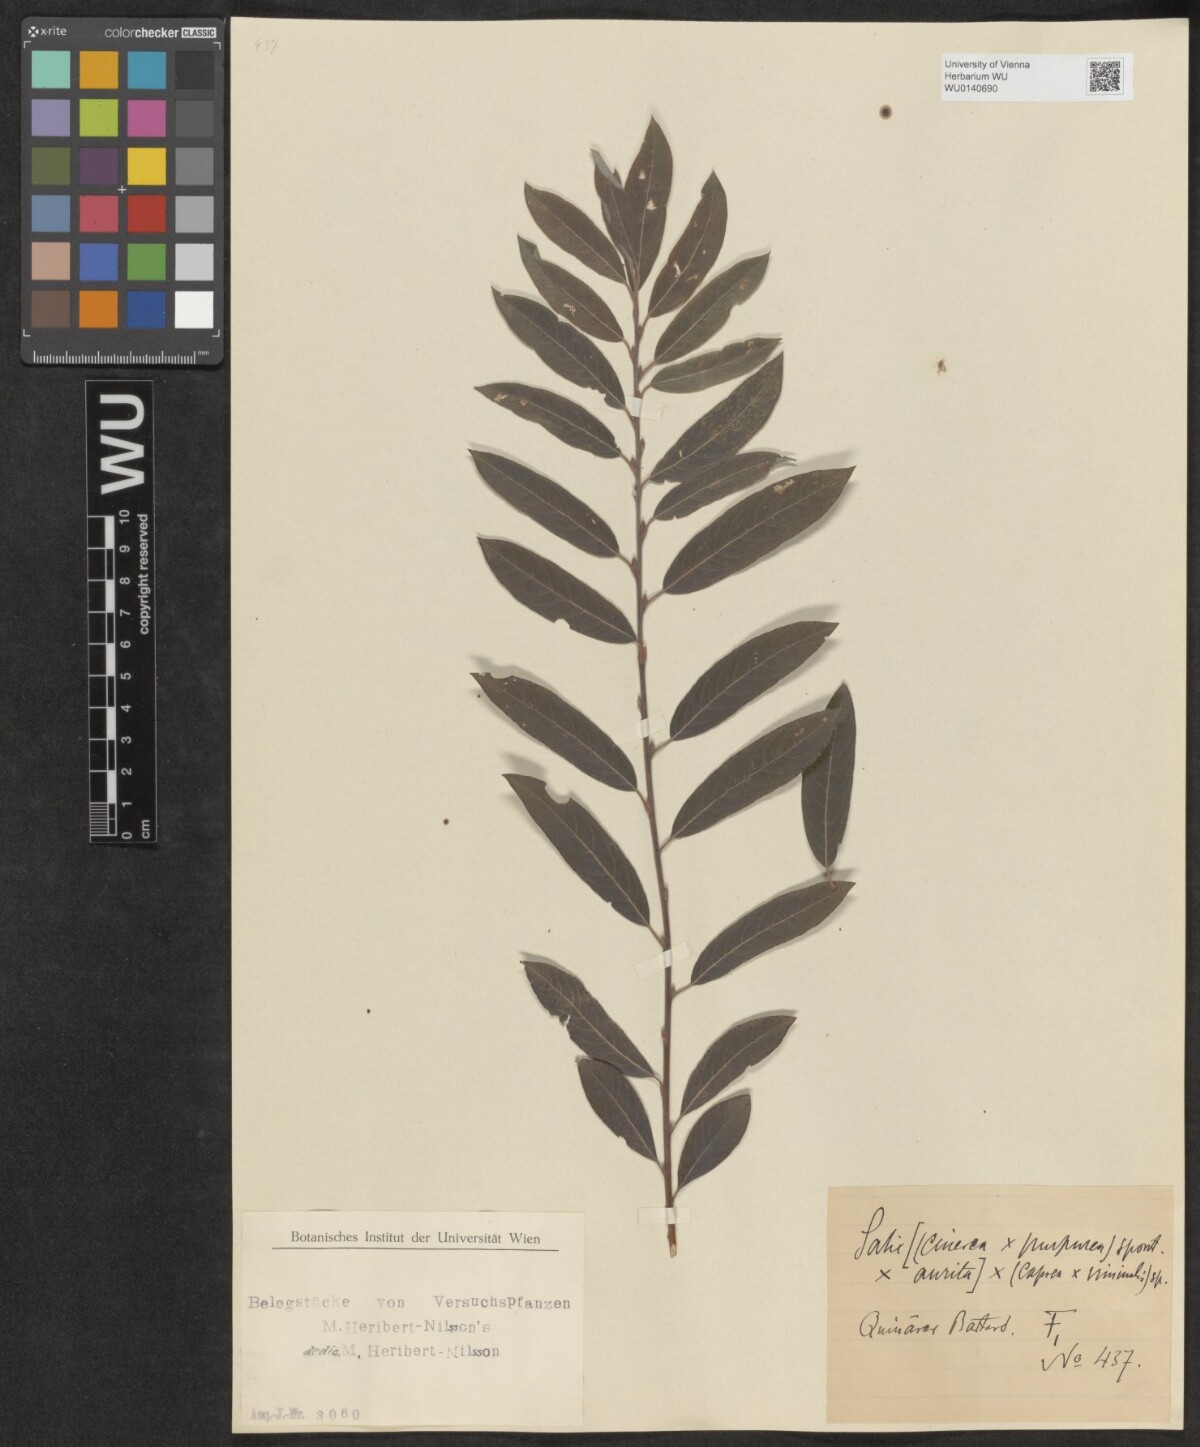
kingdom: Plantae
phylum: Tracheophyta
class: Magnoliopsida
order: Malpighiales
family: Salicaceae
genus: Salix
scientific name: Salix
